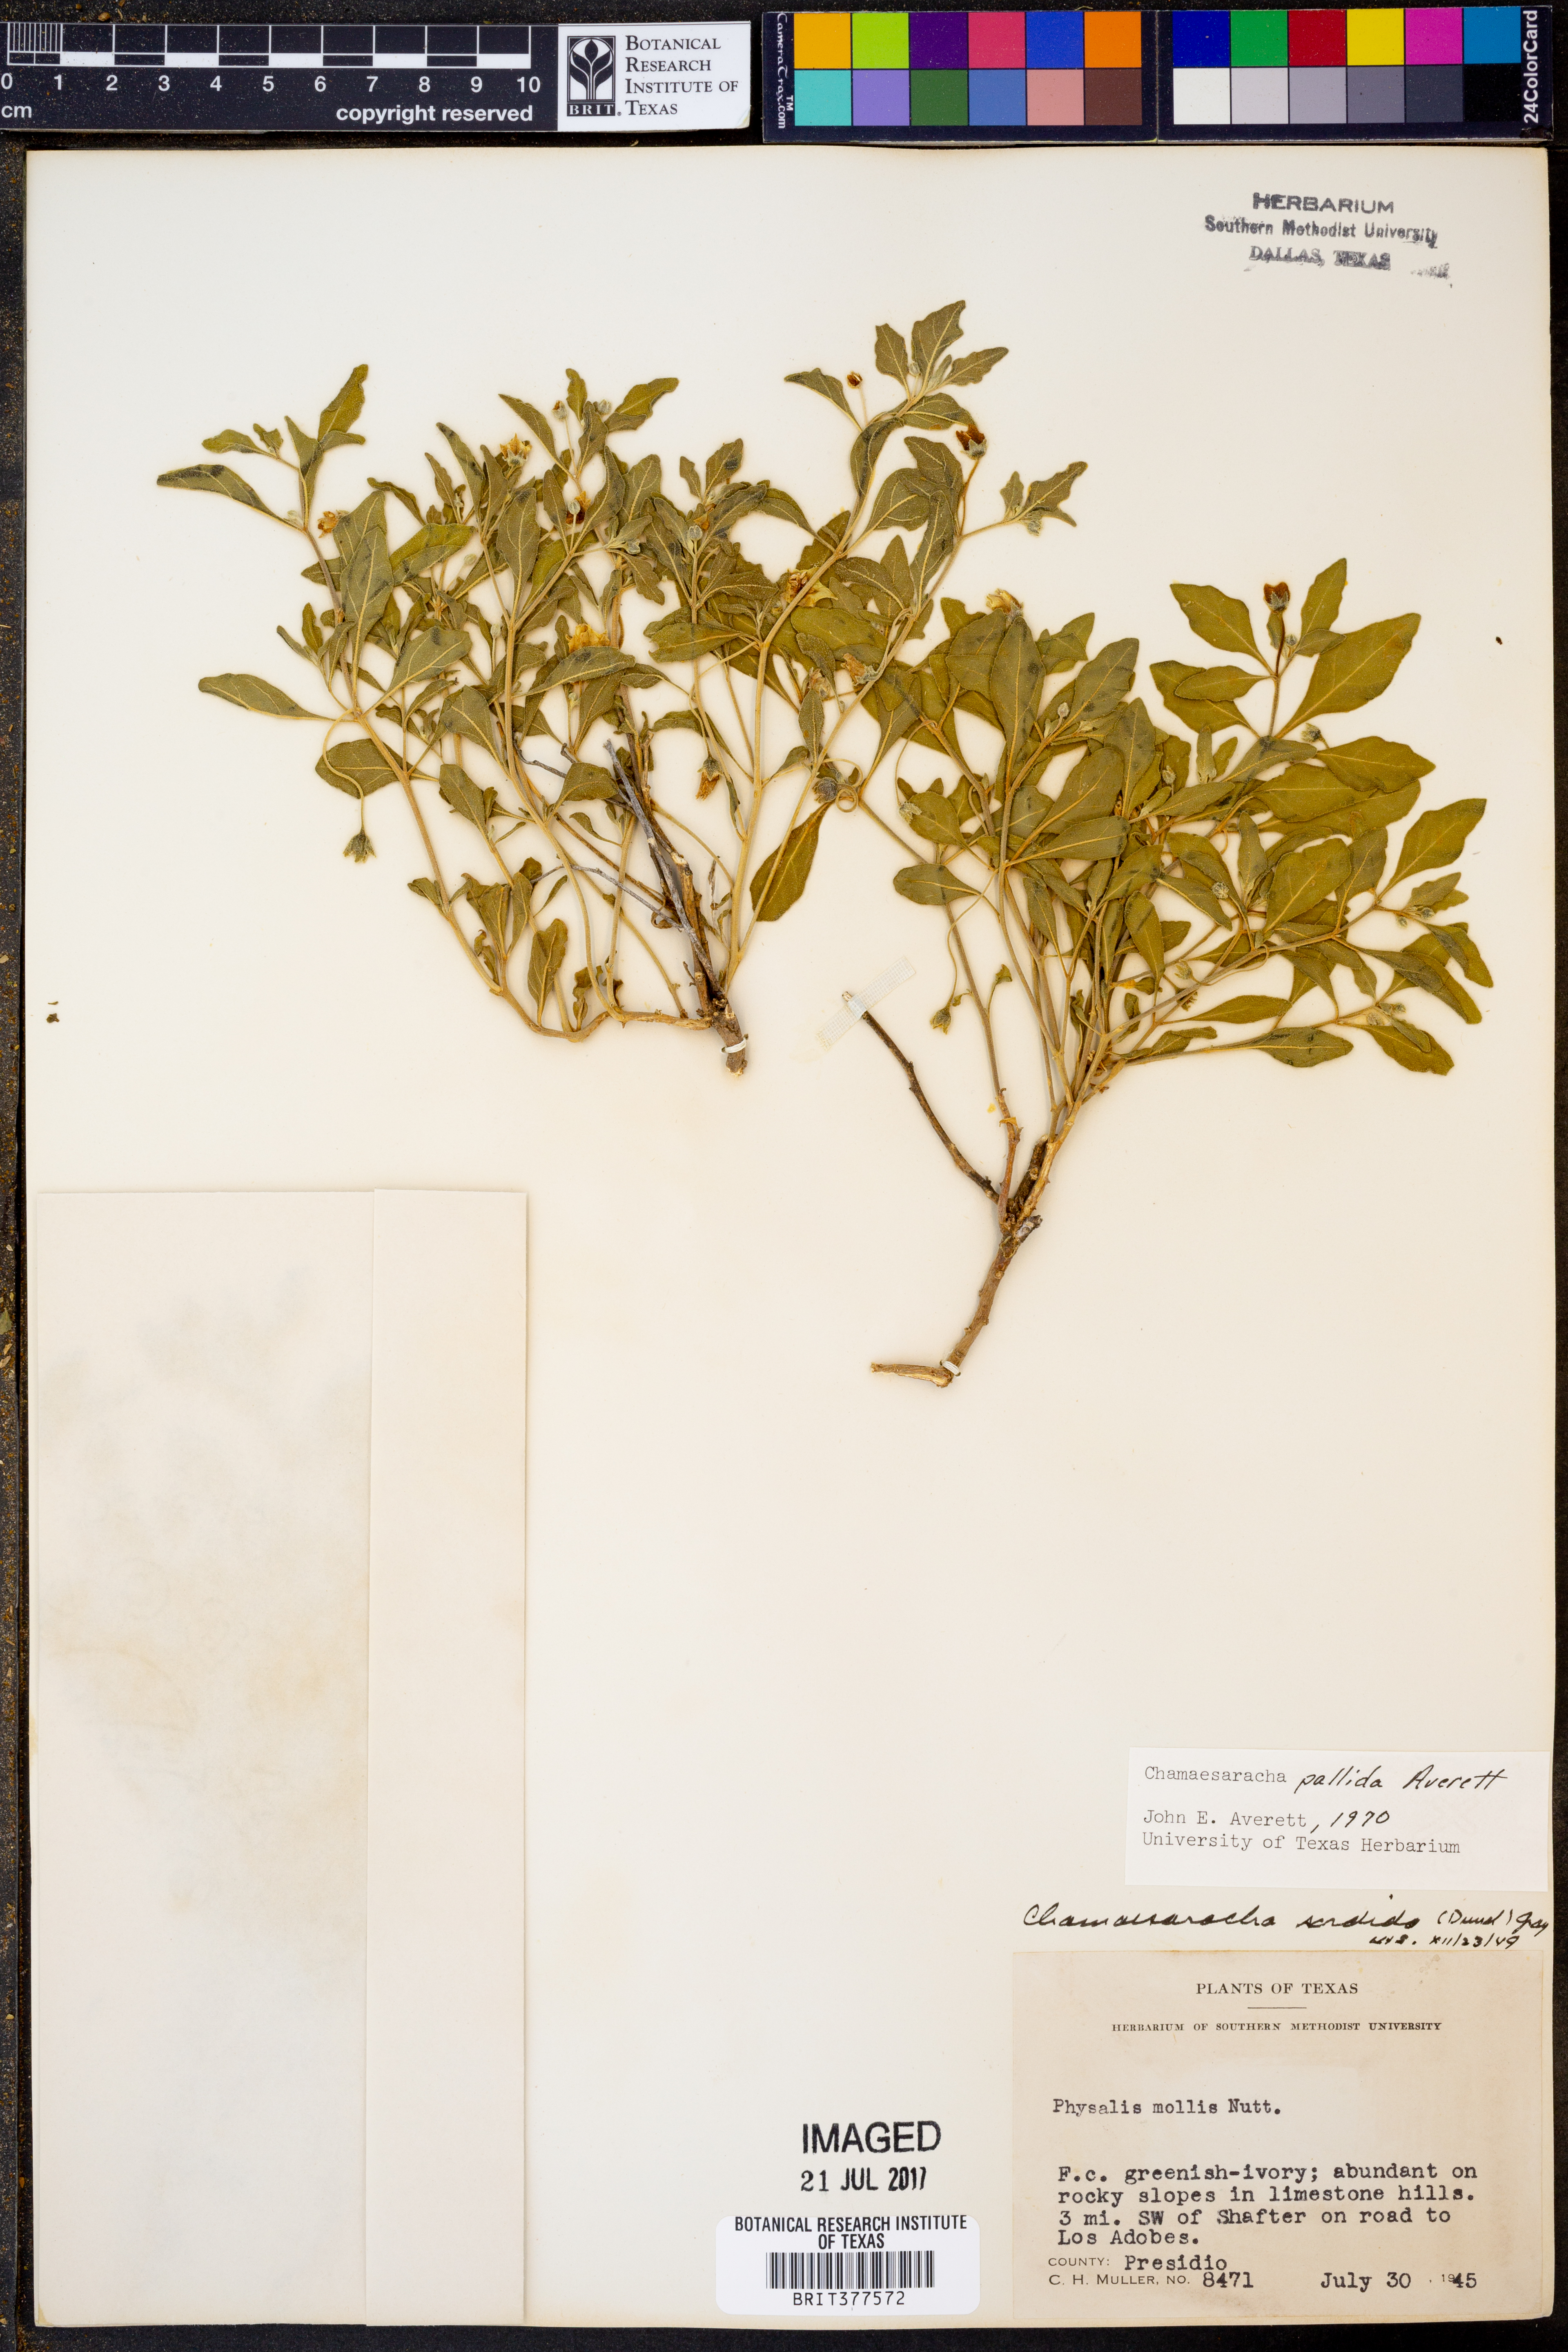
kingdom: Plantae
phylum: Tracheophyta
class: Magnoliopsida
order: Solanales
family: Solanaceae
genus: Chamaesaracha
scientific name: Chamaesaracha pallida
